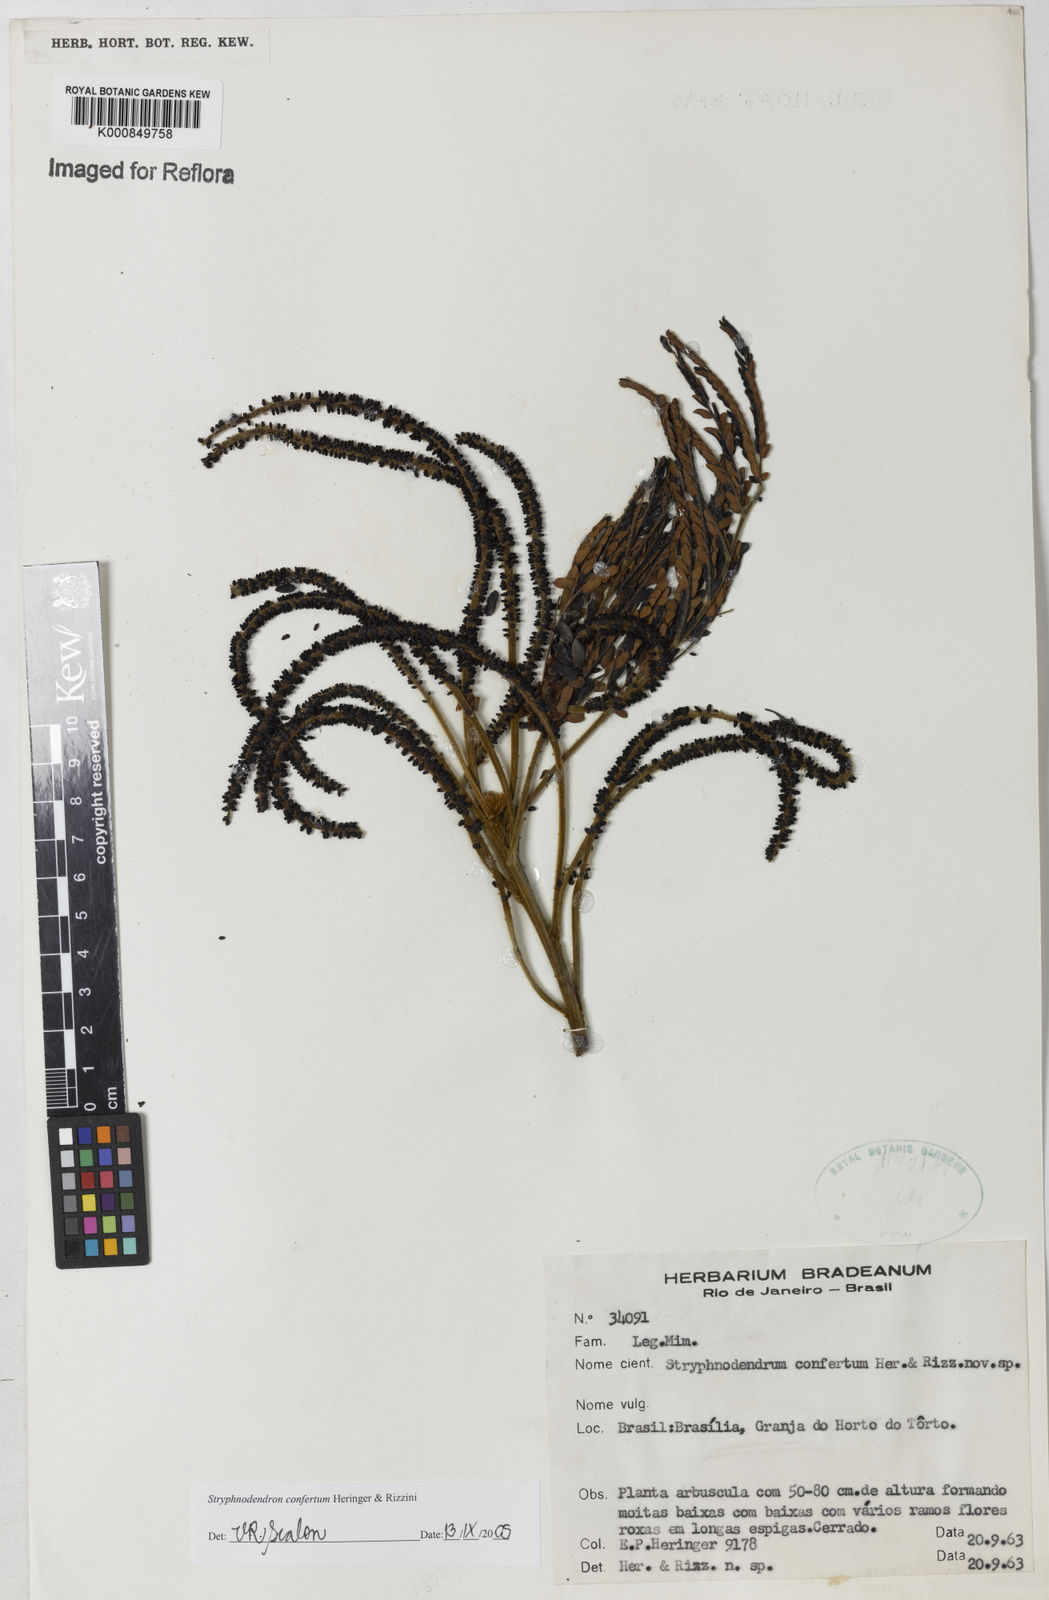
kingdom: Plantae
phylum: Tracheophyta
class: Magnoliopsida
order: Fabales
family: Fabaceae
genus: Stryphnodendron
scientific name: Stryphnodendron confertum
